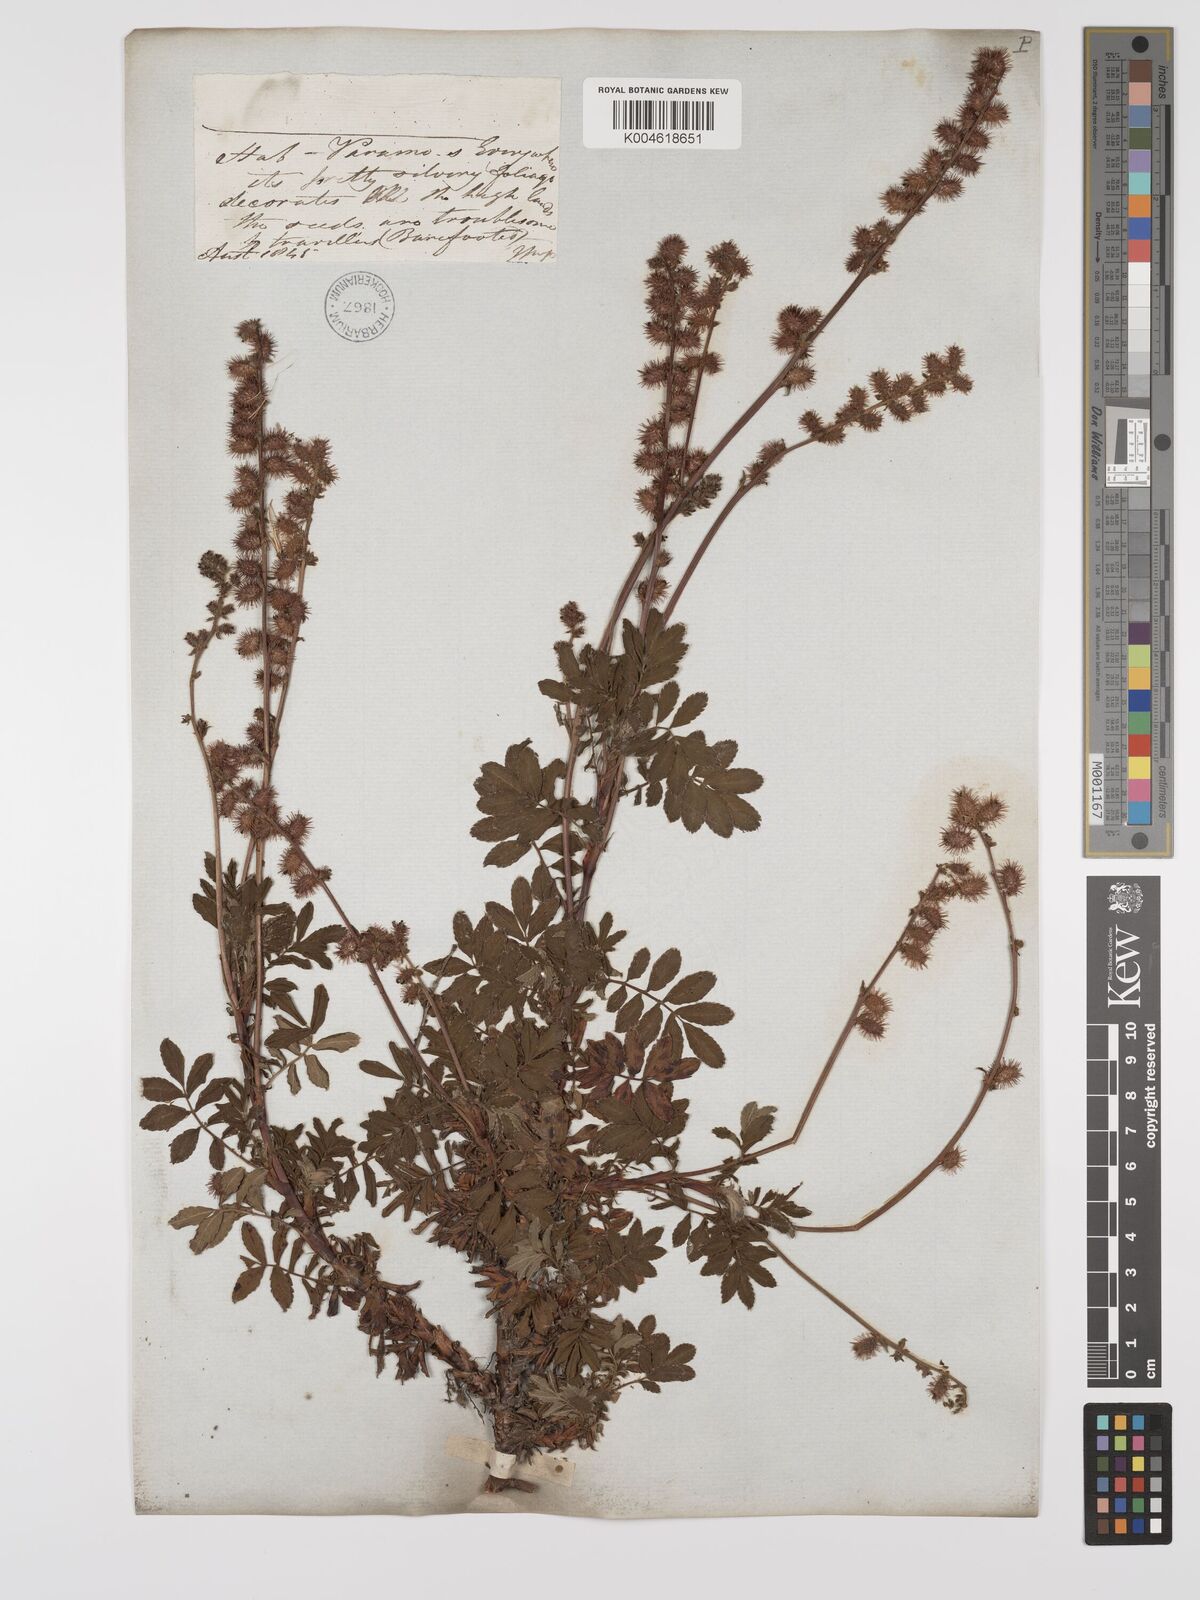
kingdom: Plantae
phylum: Tracheophyta
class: Magnoliopsida
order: Rosales
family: Rosaceae
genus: Acaena
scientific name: Acaena elongata
